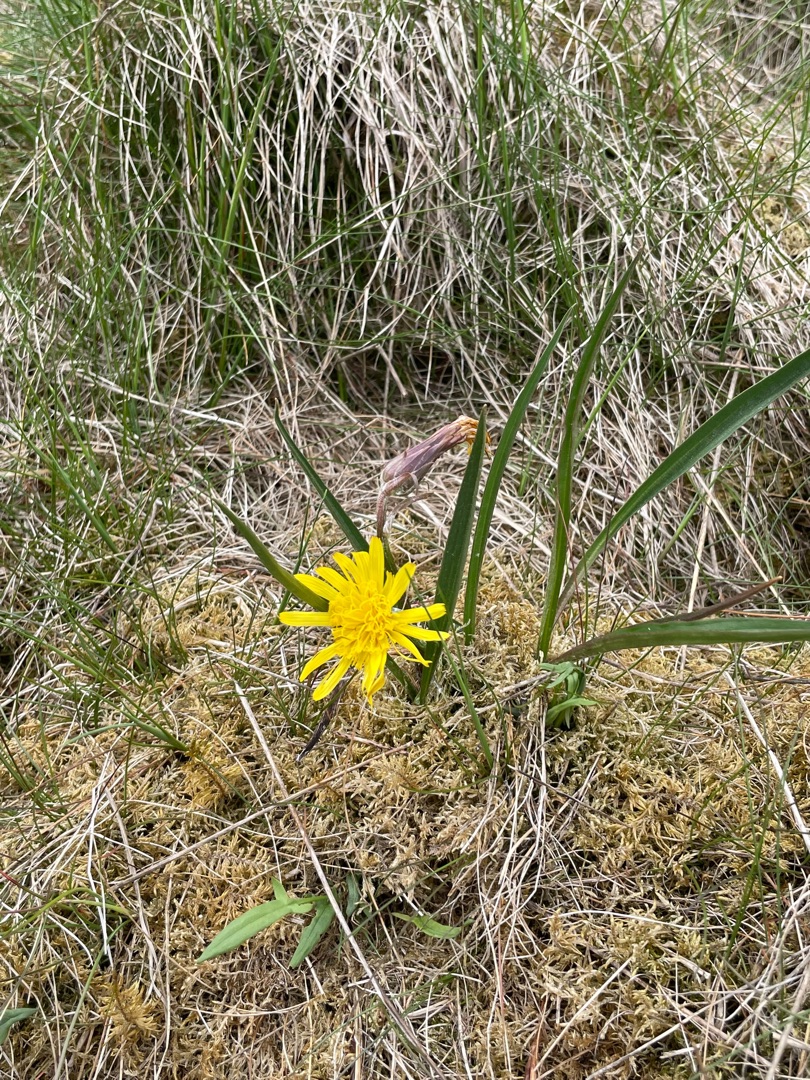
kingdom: Plantae
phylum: Tracheophyta
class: Magnoliopsida
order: Asterales
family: Asteraceae
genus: Scorzonera
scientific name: Scorzonera humilis
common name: Lav skorsoner
